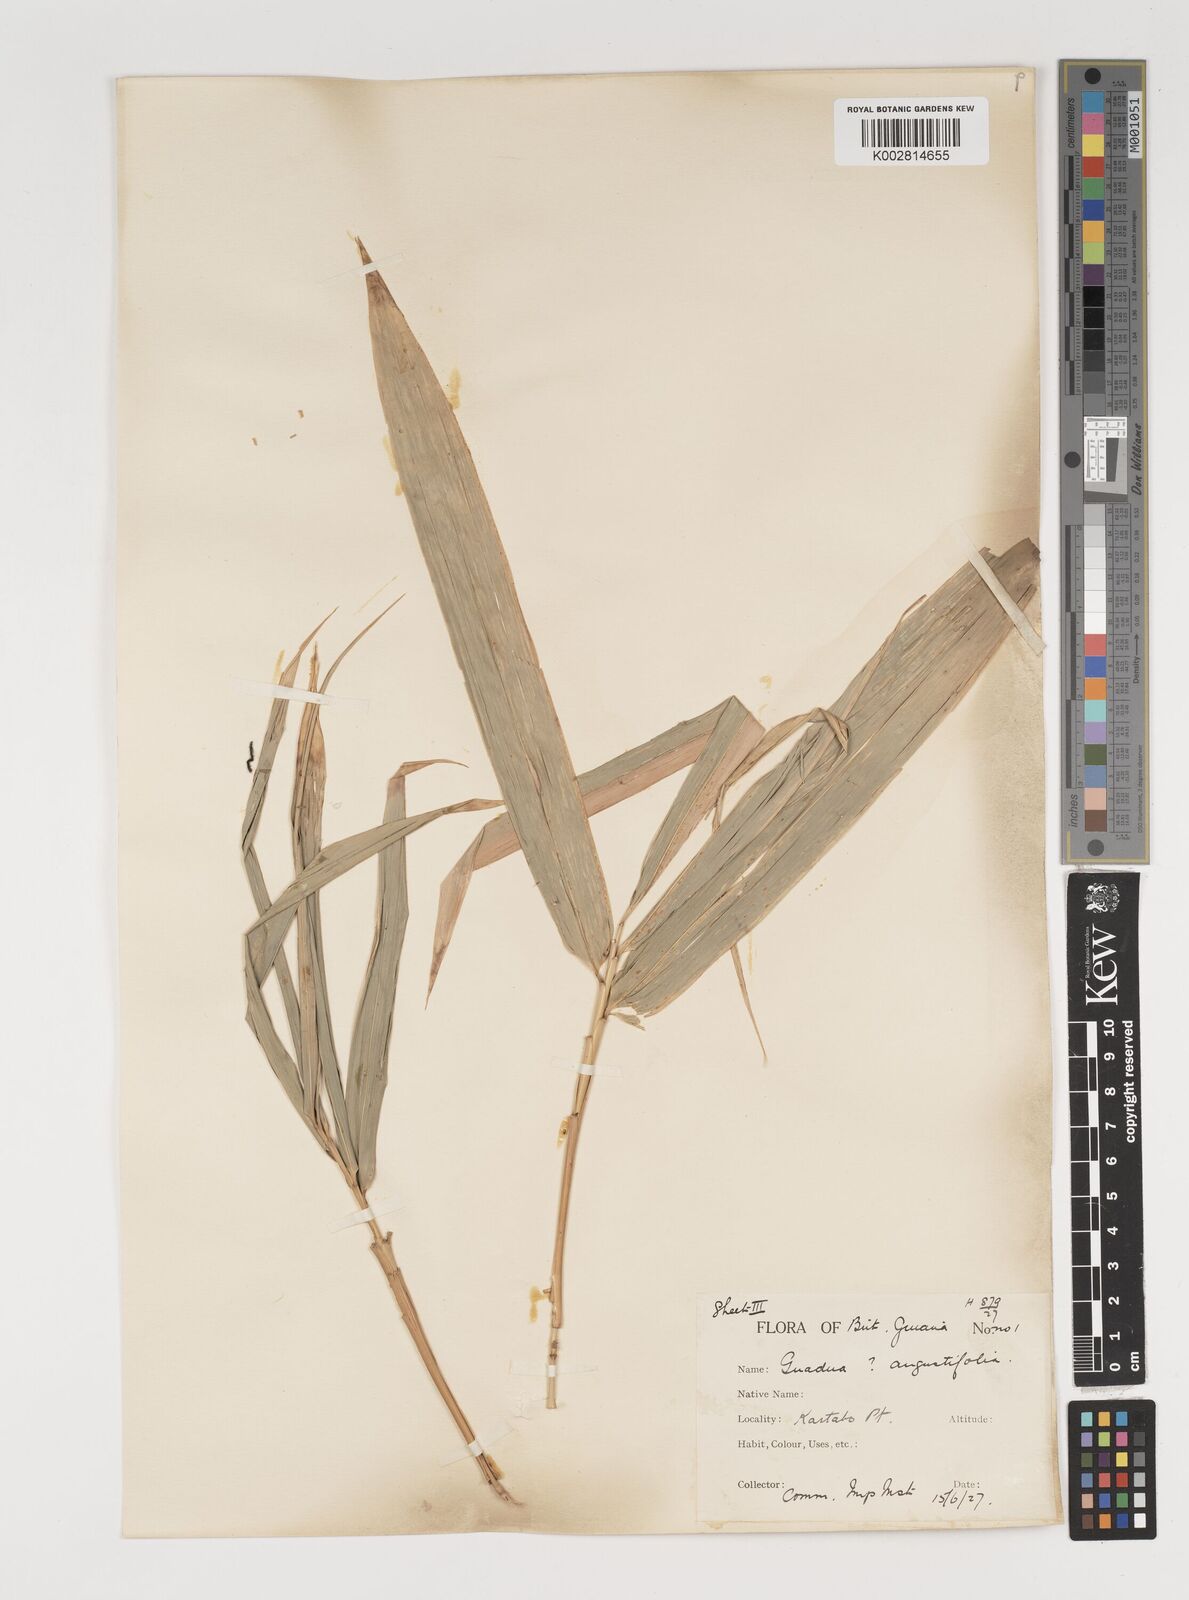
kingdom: Plantae
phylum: Tracheophyta
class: Liliopsida
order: Poales
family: Poaceae
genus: Guadua
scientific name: Guadua angustifolia
